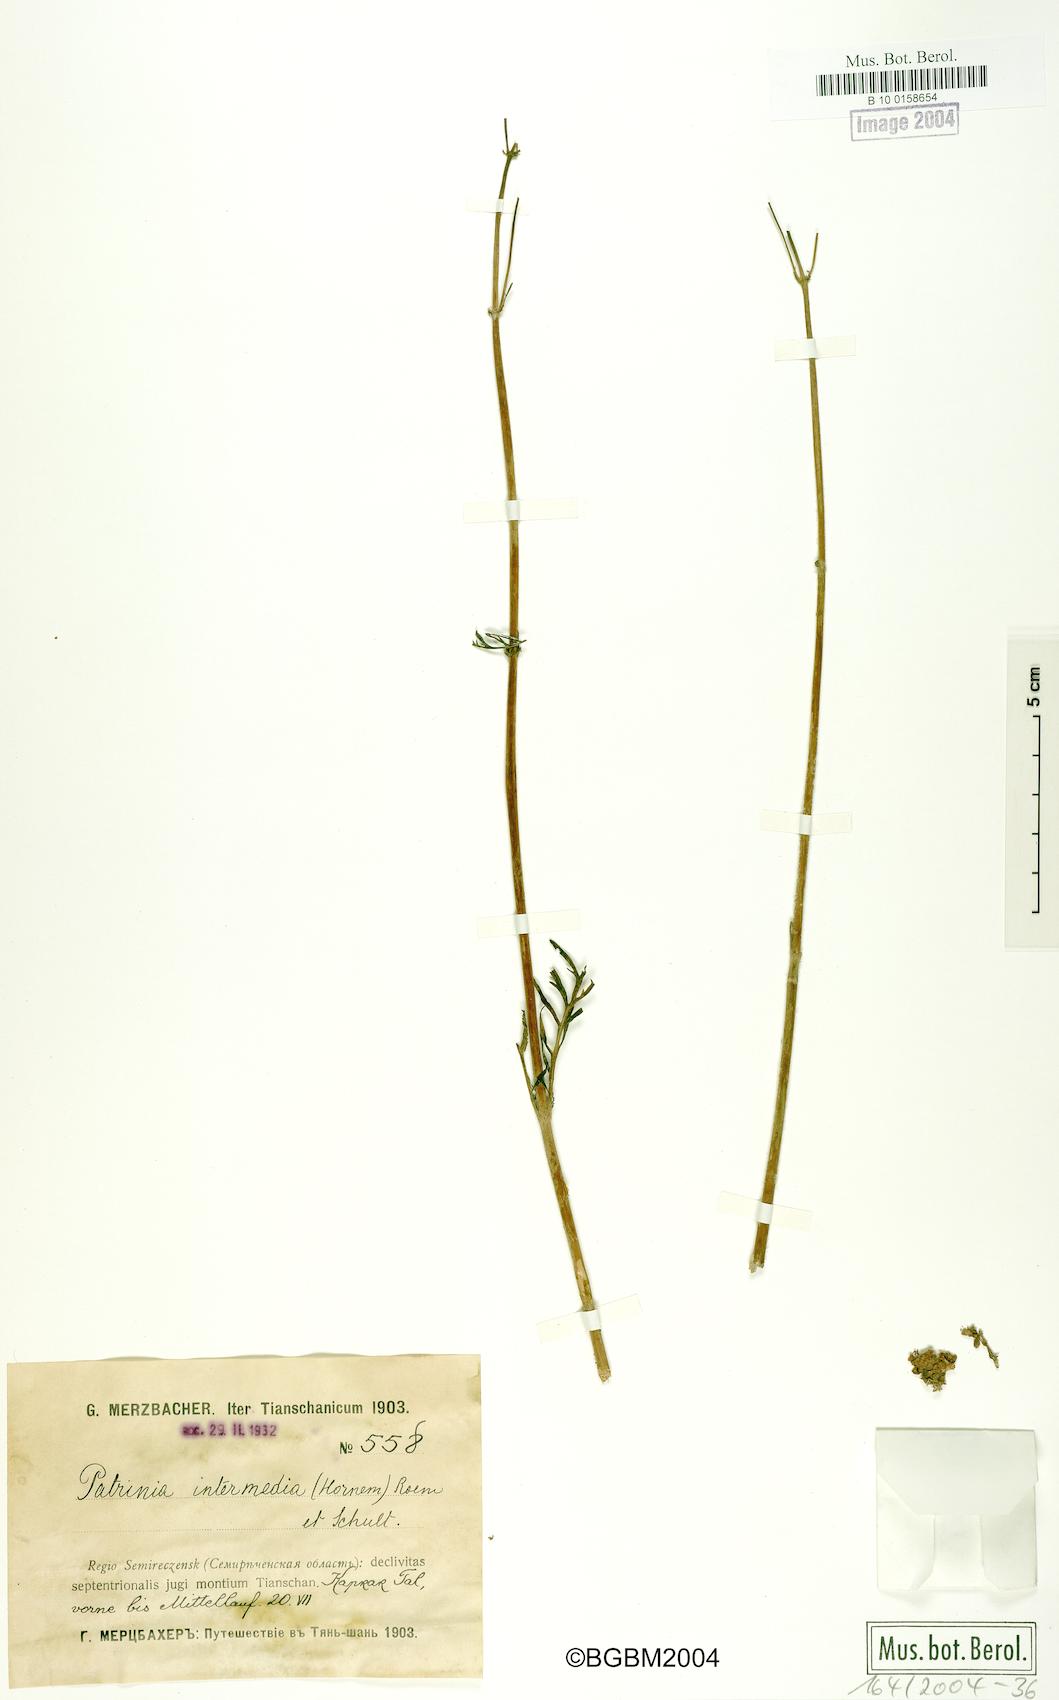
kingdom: Plantae
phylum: Tracheophyta
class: Magnoliopsida
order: Dipsacales
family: Caprifoliaceae
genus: Patrinia
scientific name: Patrinia intermedia
